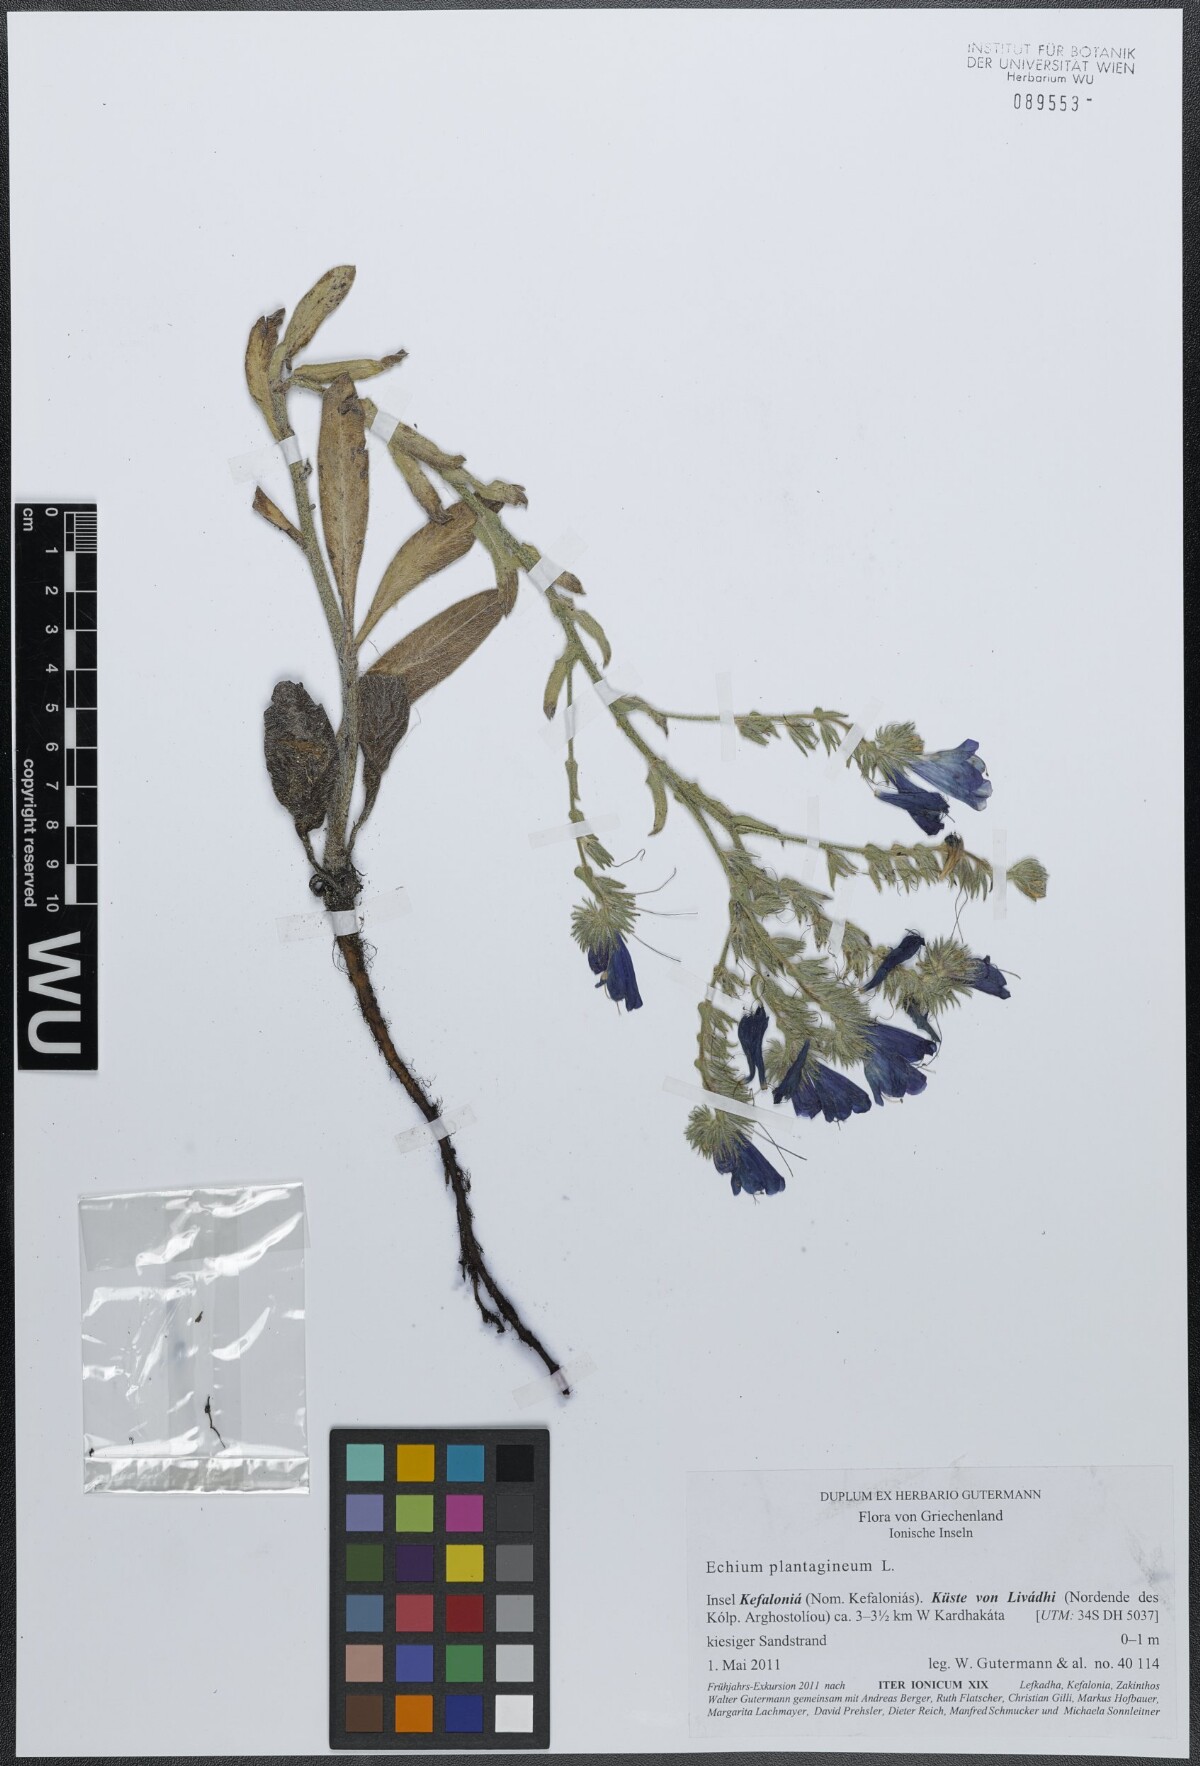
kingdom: Plantae
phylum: Tracheophyta
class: Magnoliopsida
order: Boraginales
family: Boraginaceae
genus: Echium
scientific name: Echium plantagineum
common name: Purple viper's-bugloss
